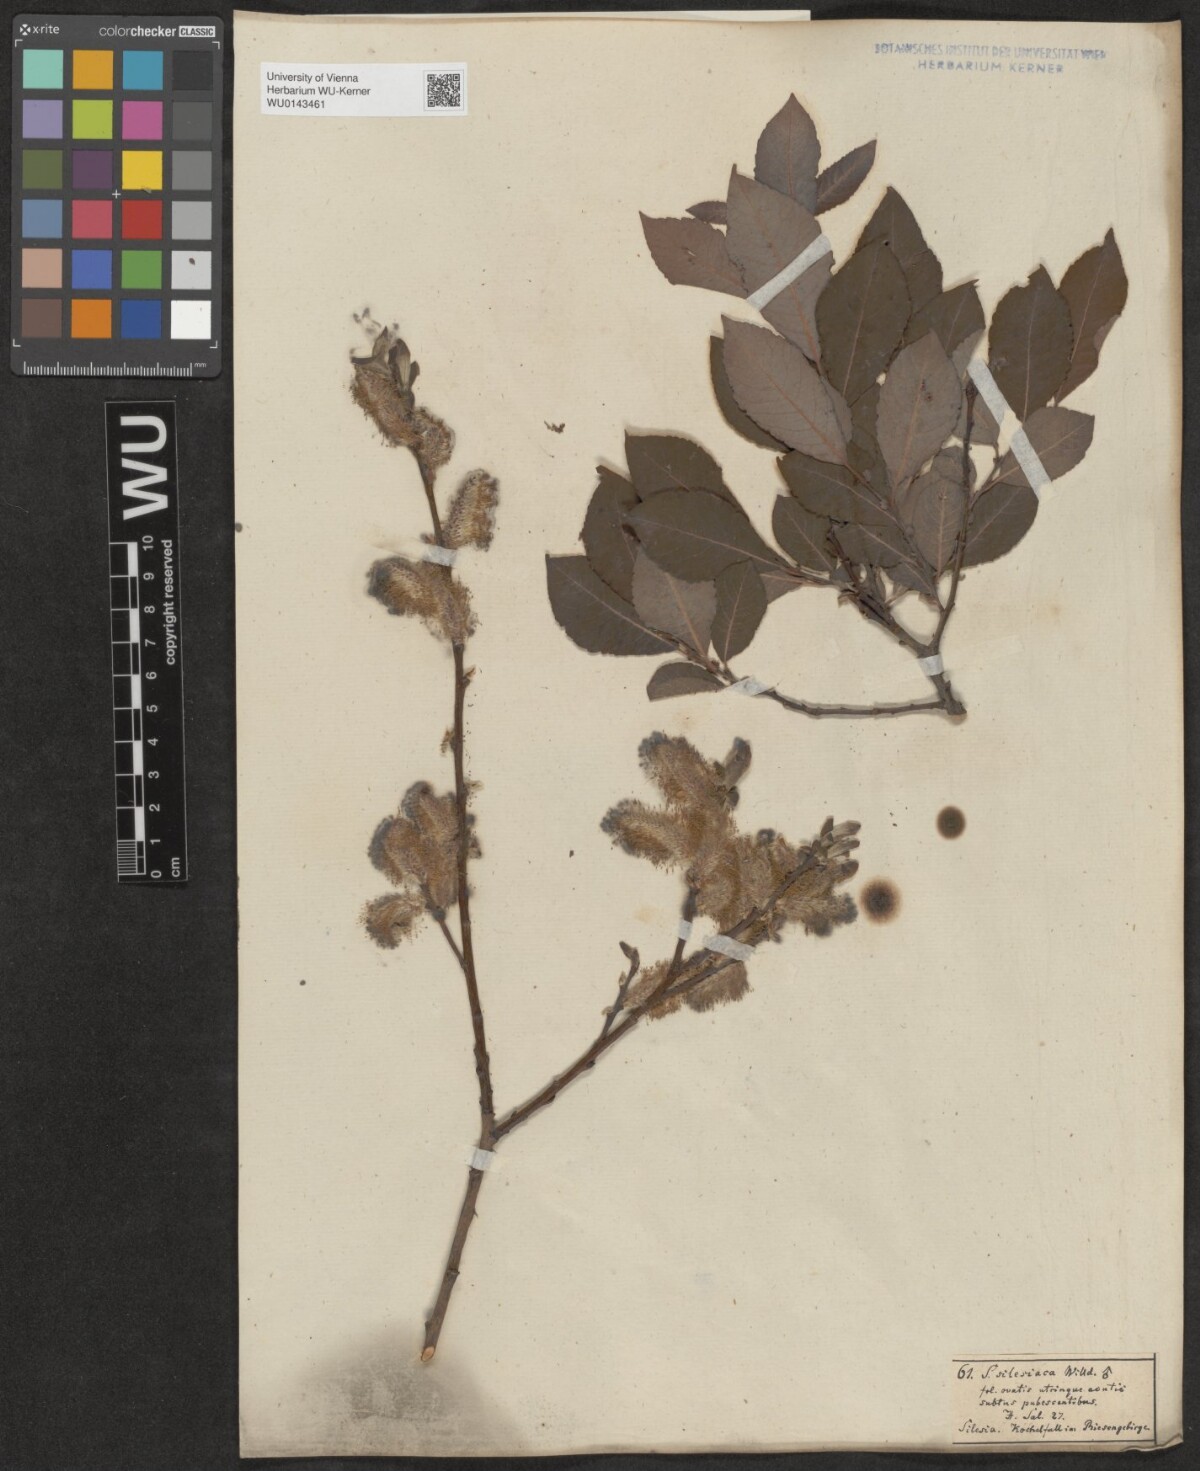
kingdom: Plantae
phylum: Tracheophyta
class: Magnoliopsida
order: Malpighiales
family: Salicaceae
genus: Salix
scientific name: Salix silesiaca
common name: Silesian willow
